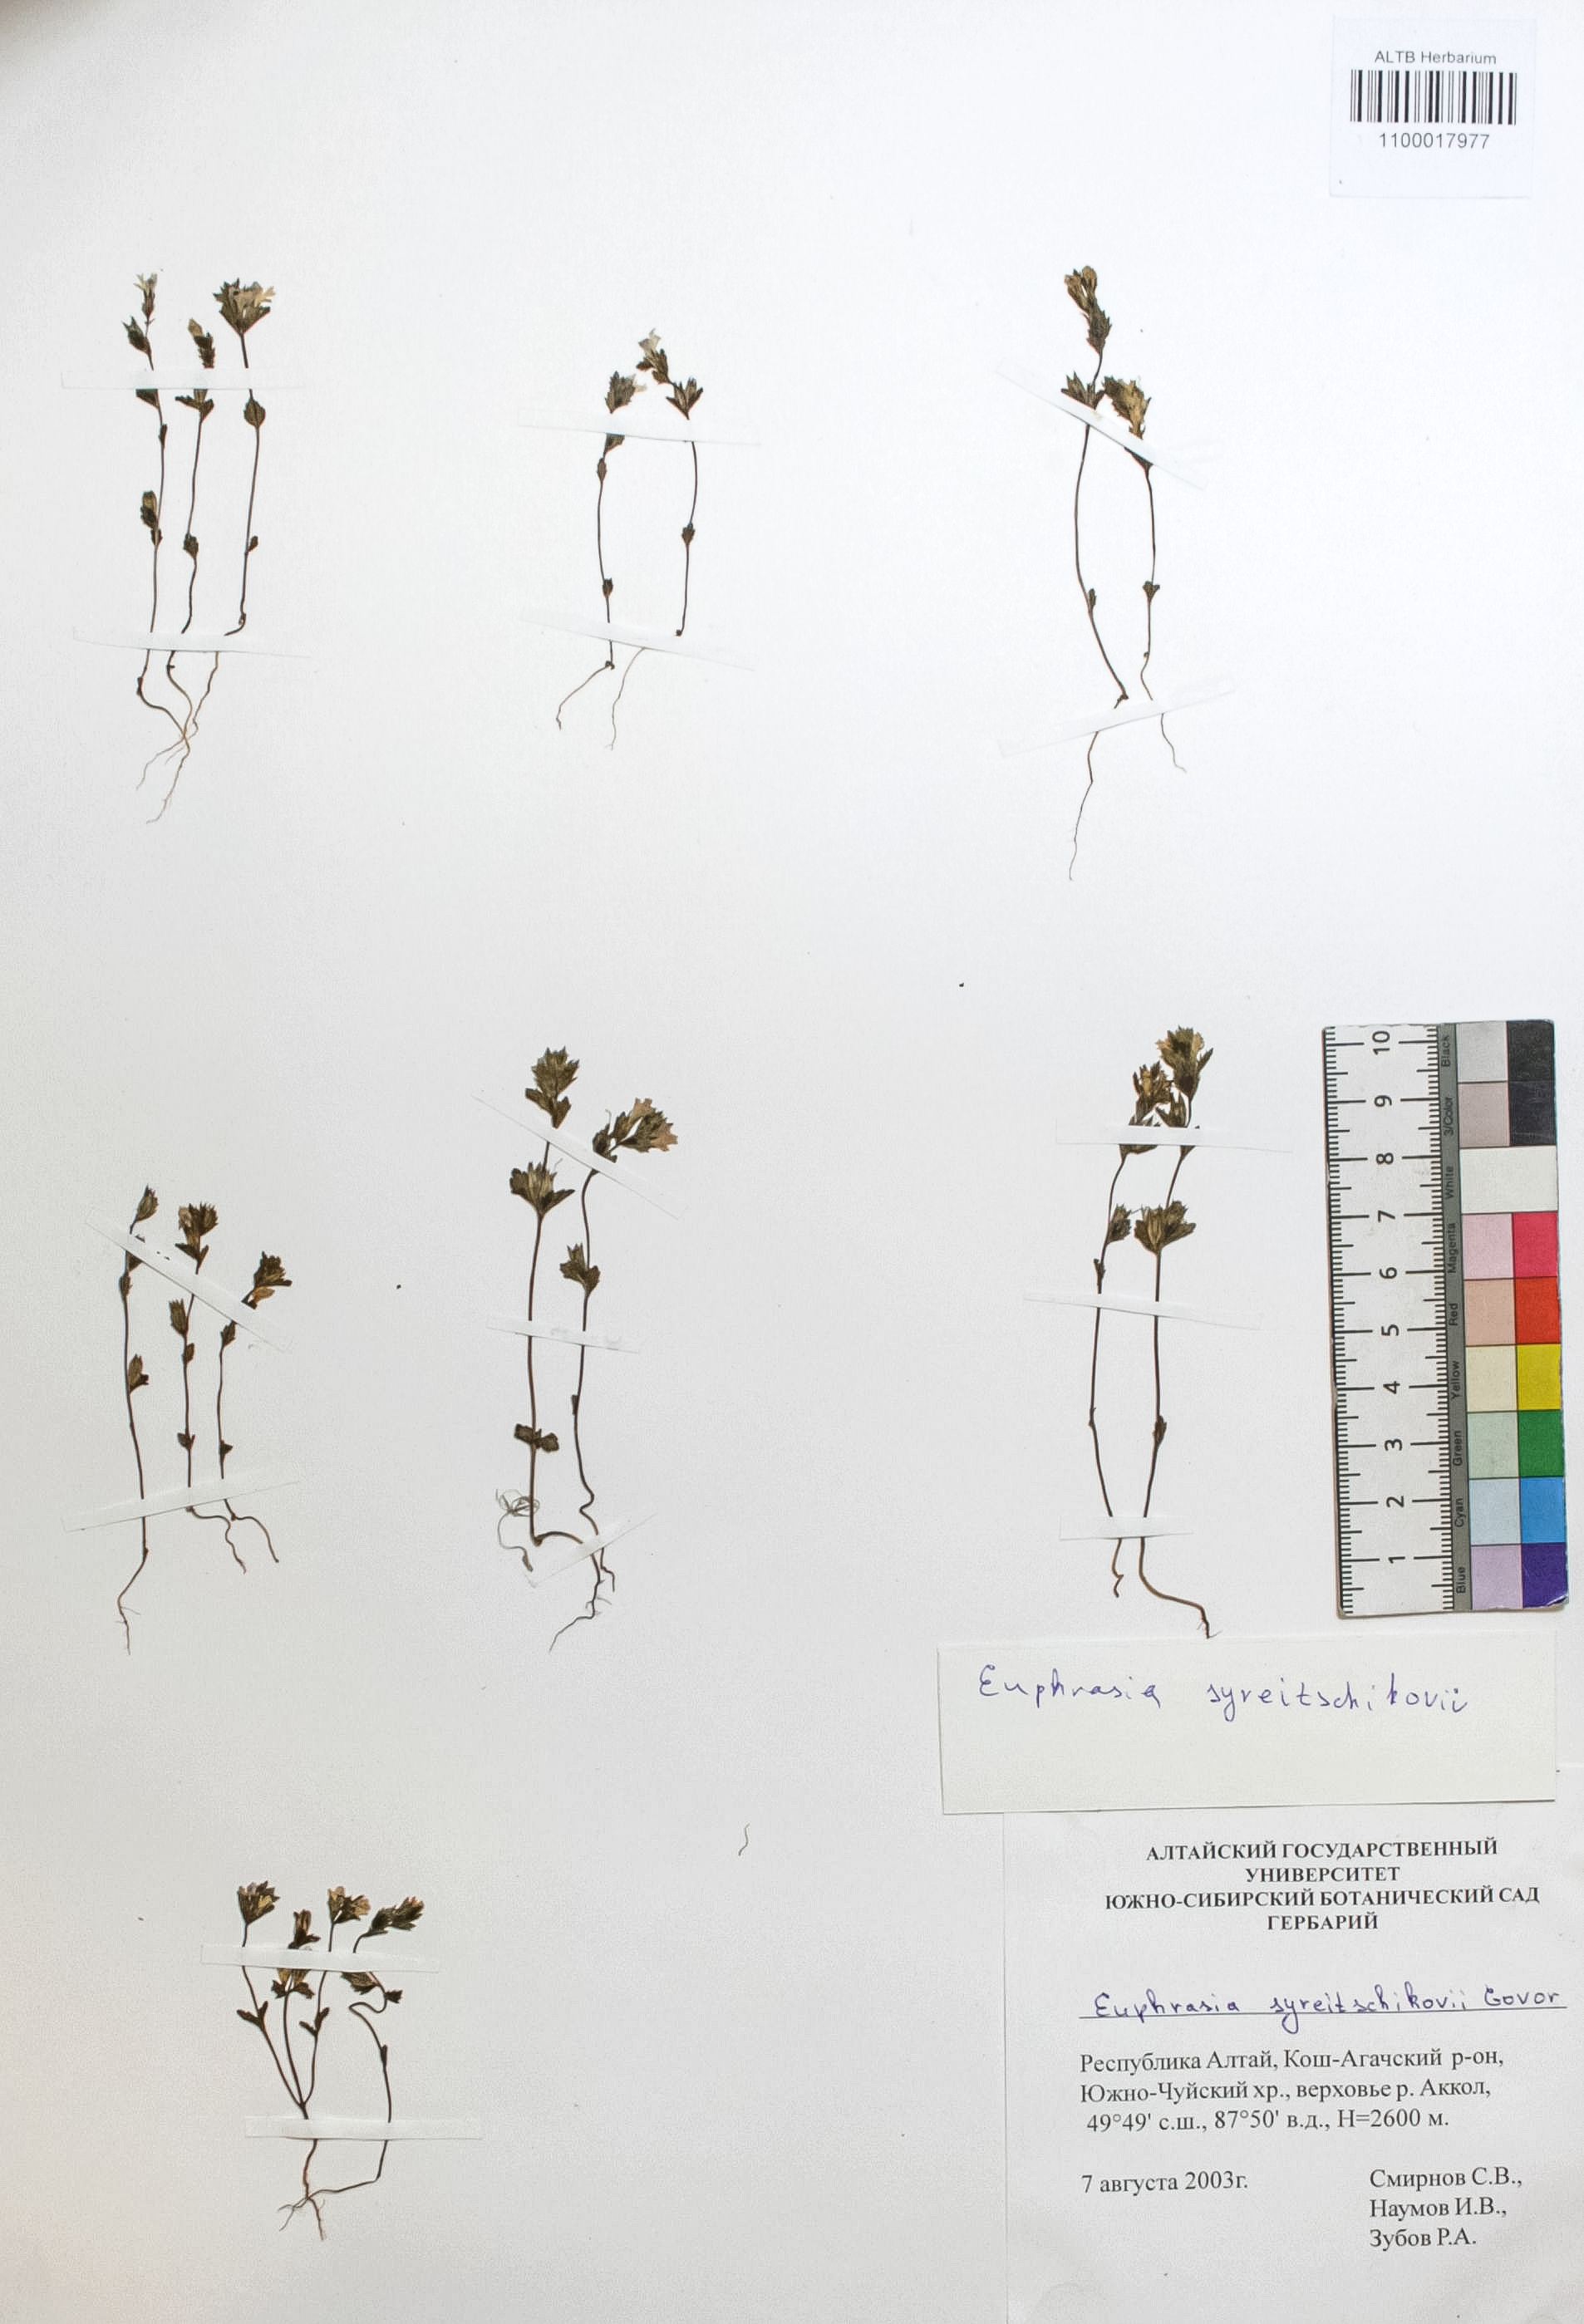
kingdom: Plantae
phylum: Tracheophyta
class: Magnoliopsida
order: Lamiales
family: Orobanchaceae
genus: Euphrasia
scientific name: Euphrasia syreitschikovii
